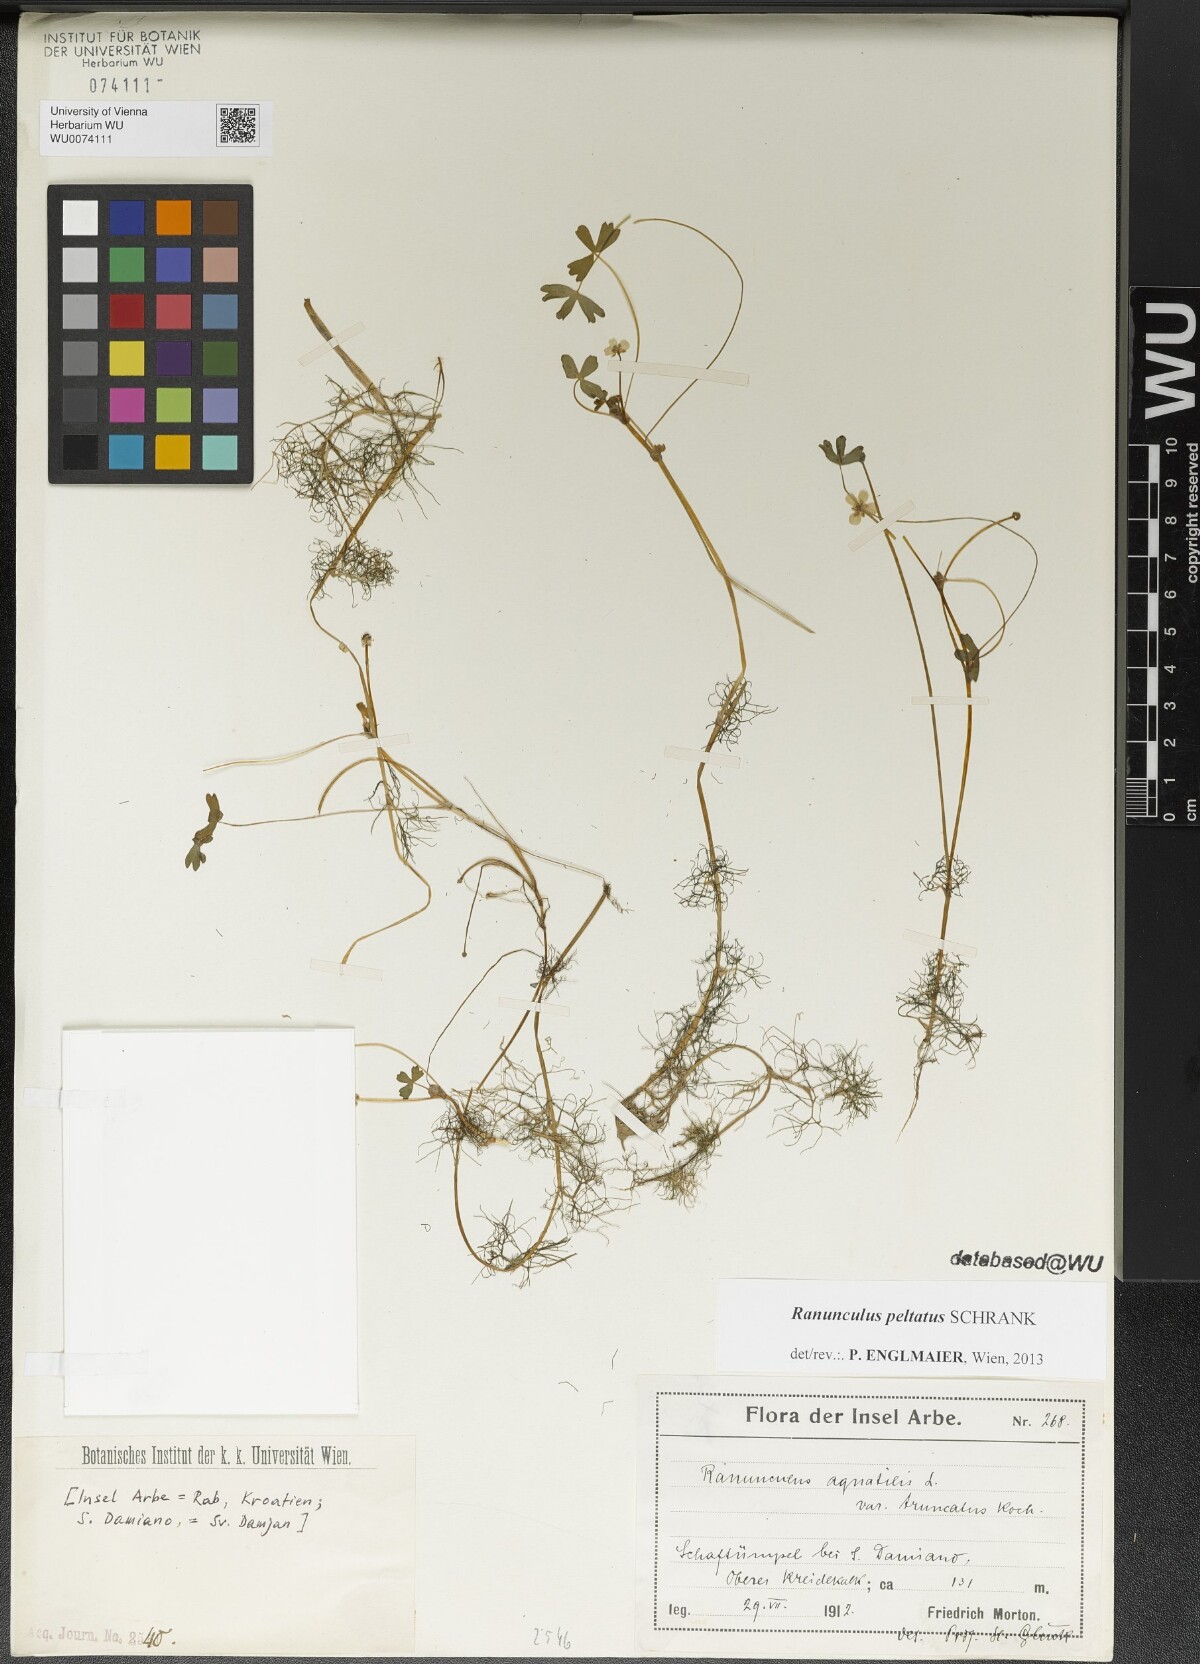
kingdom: Plantae
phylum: Tracheophyta
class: Magnoliopsida
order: Ranunculales
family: Ranunculaceae
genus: Ranunculus
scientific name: Ranunculus peltatus
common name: Pond water-crowfoot
